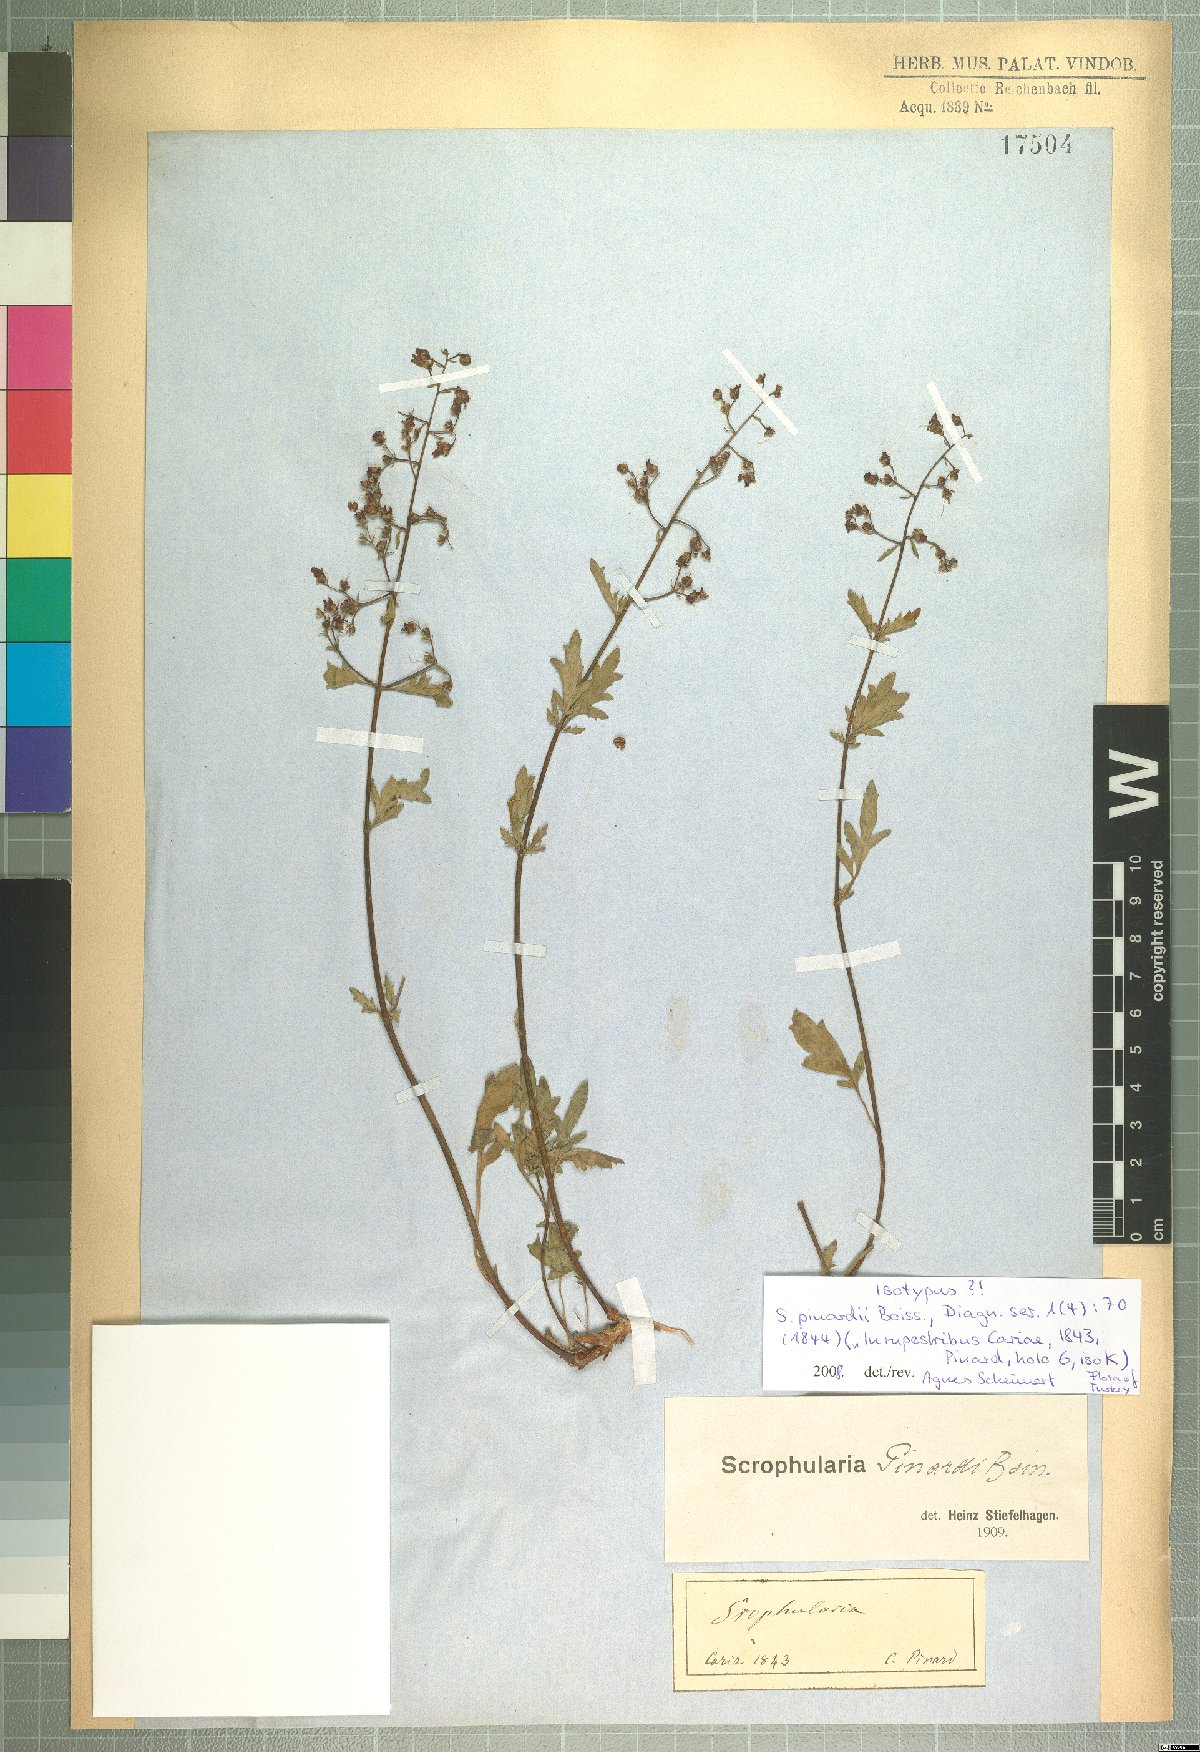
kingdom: Plantae
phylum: Tracheophyta
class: Magnoliopsida
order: Lamiales
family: Scrophulariaceae
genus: Scrophularia
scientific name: Scrophularia pinardii
